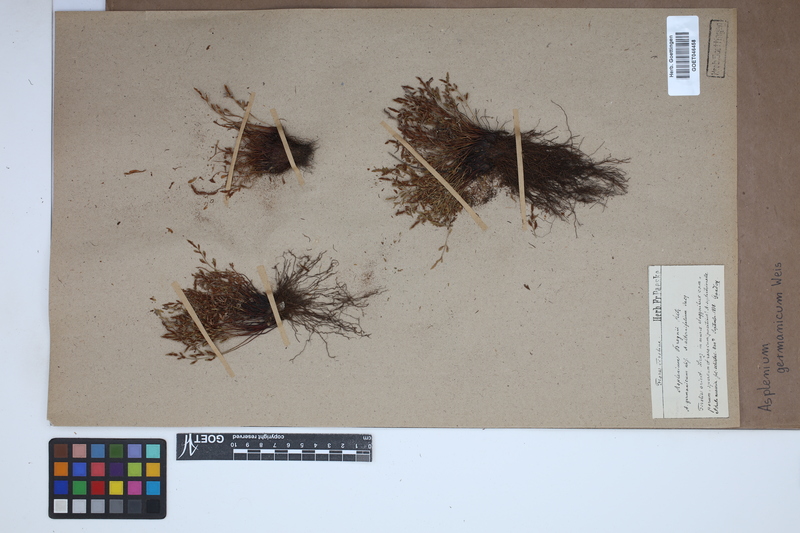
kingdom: Plantae
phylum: Tracheophyta
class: Polypodiopsida
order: Polypodiales
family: Aspleniaceae
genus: Asplenium
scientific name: Asplenium
